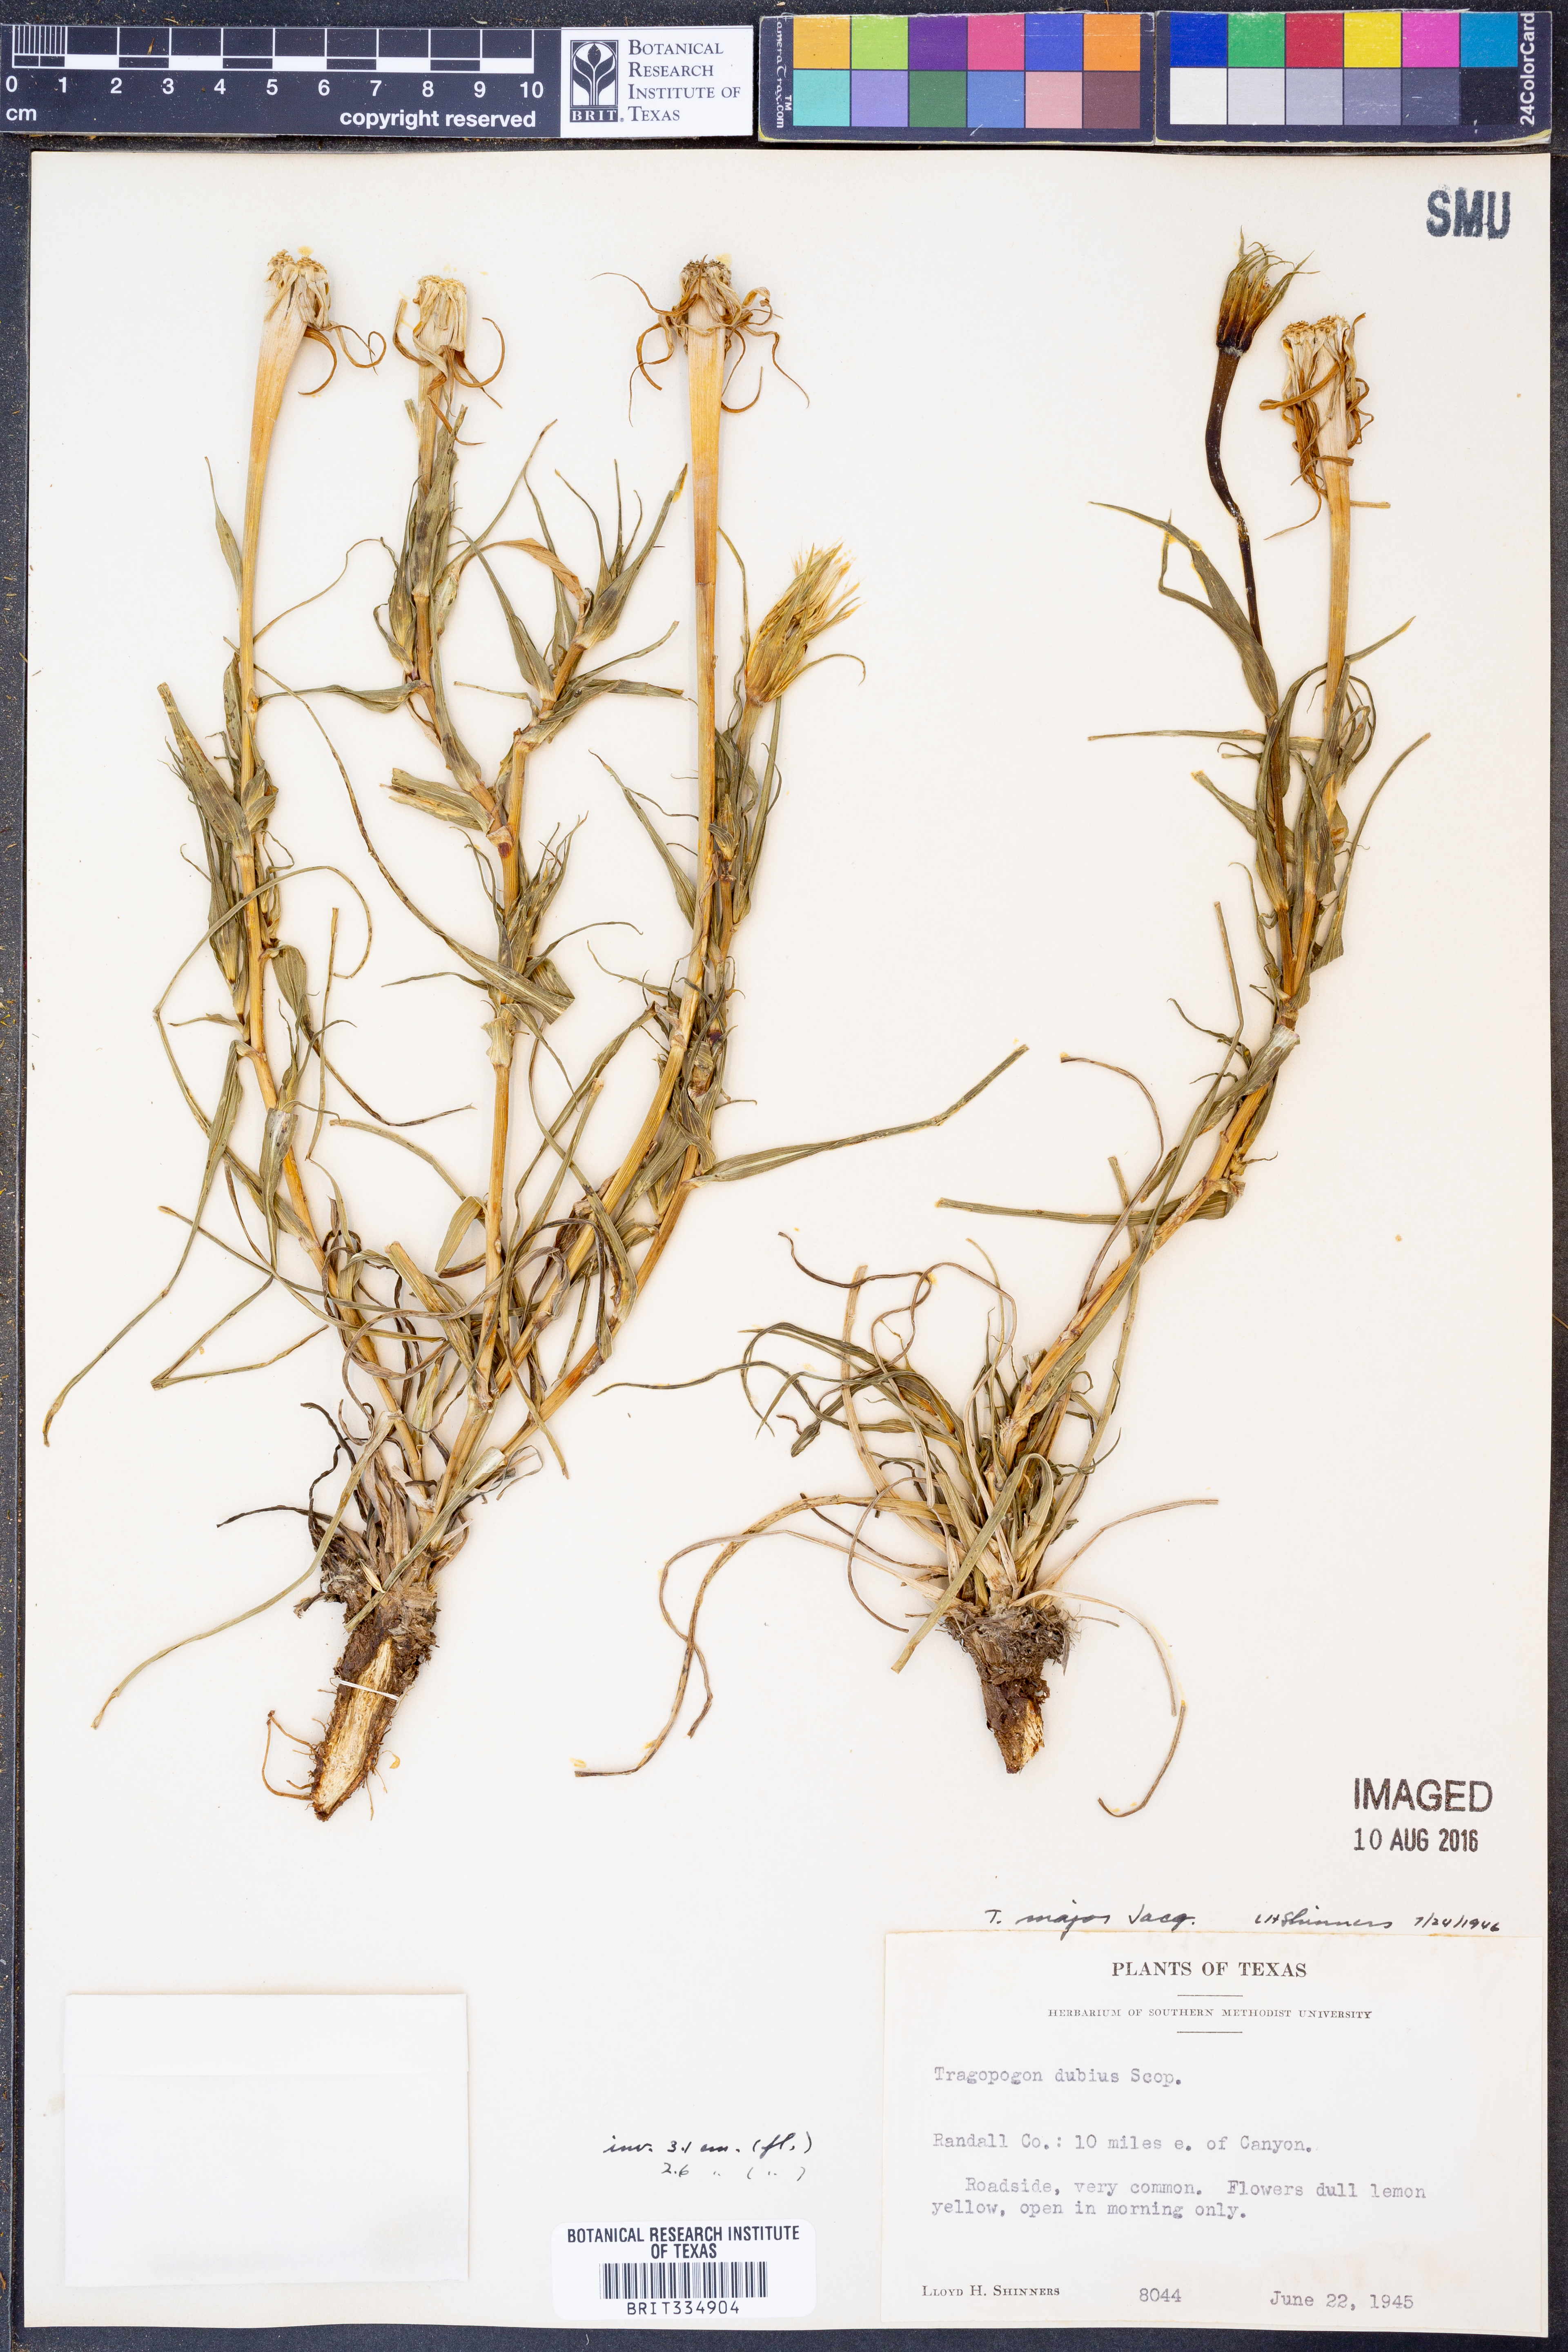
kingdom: Plantae
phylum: Tracheophyta
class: Magnoliopsida
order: Asterales
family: Asteraceae
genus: Tragopogon
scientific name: Tragopogon dubius
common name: Yellow salsify
